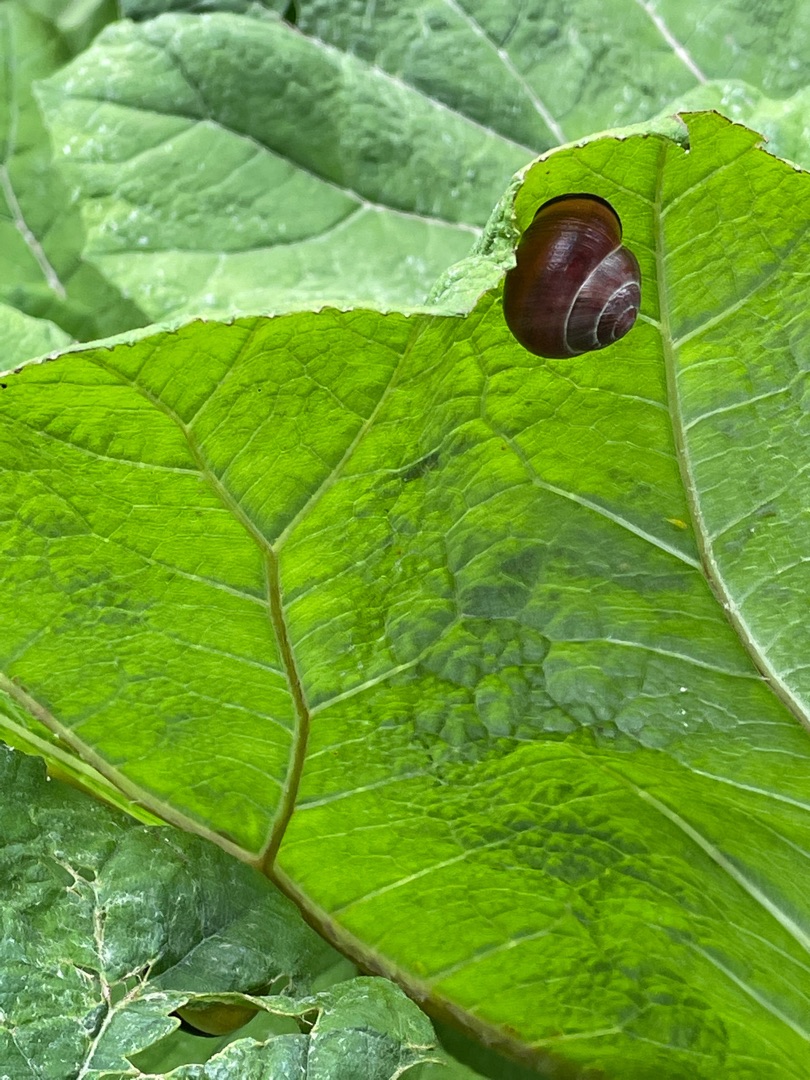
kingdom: Animalia
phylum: Mollusca
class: Gastropoda
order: Stylommatophora
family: Helicidae
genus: Cepaea
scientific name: Cepaea nemoralis
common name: Lundsnegl
